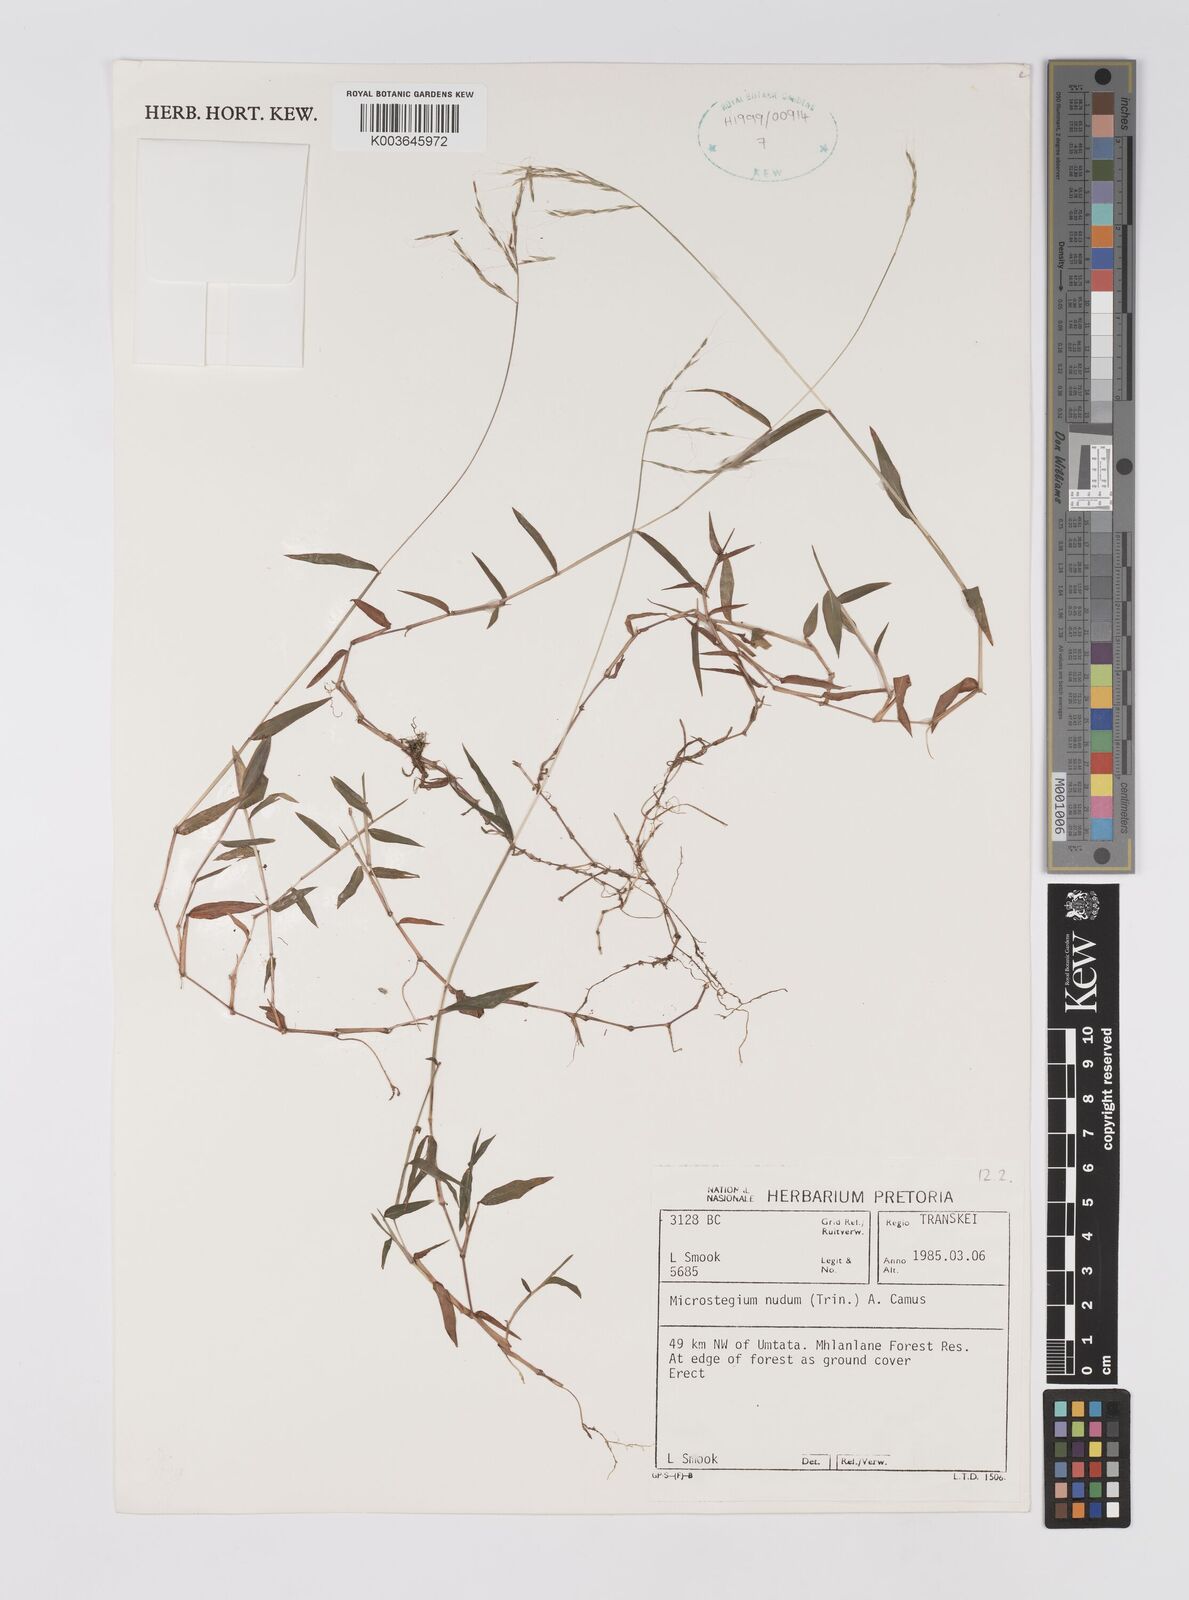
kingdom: Plantae
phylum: Tracheophyta
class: Liliopsida
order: Poales
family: Poaceae
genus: Microstegium
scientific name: Microstegium nudum
